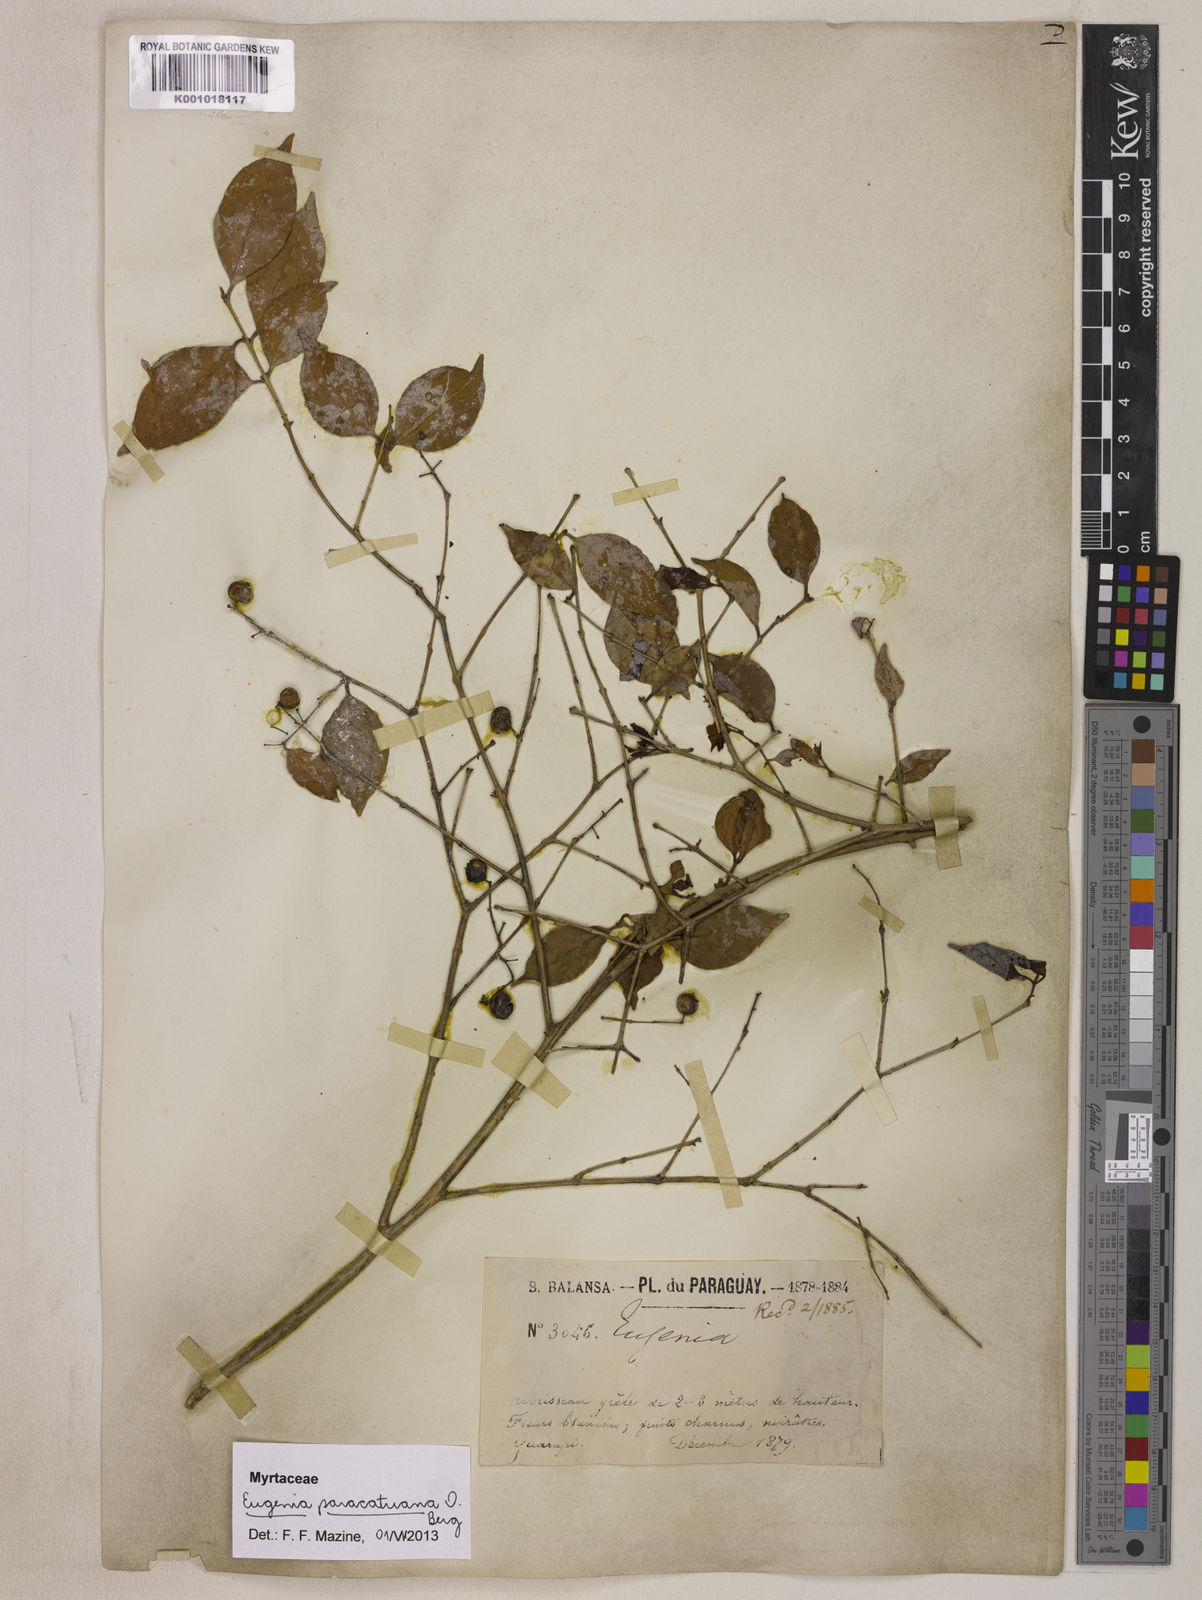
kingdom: Plantae
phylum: Tracheophyta
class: Magnoliopsida
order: Myrtales
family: Myrtaceae
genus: Eugenia
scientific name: Eugenia moraviana
